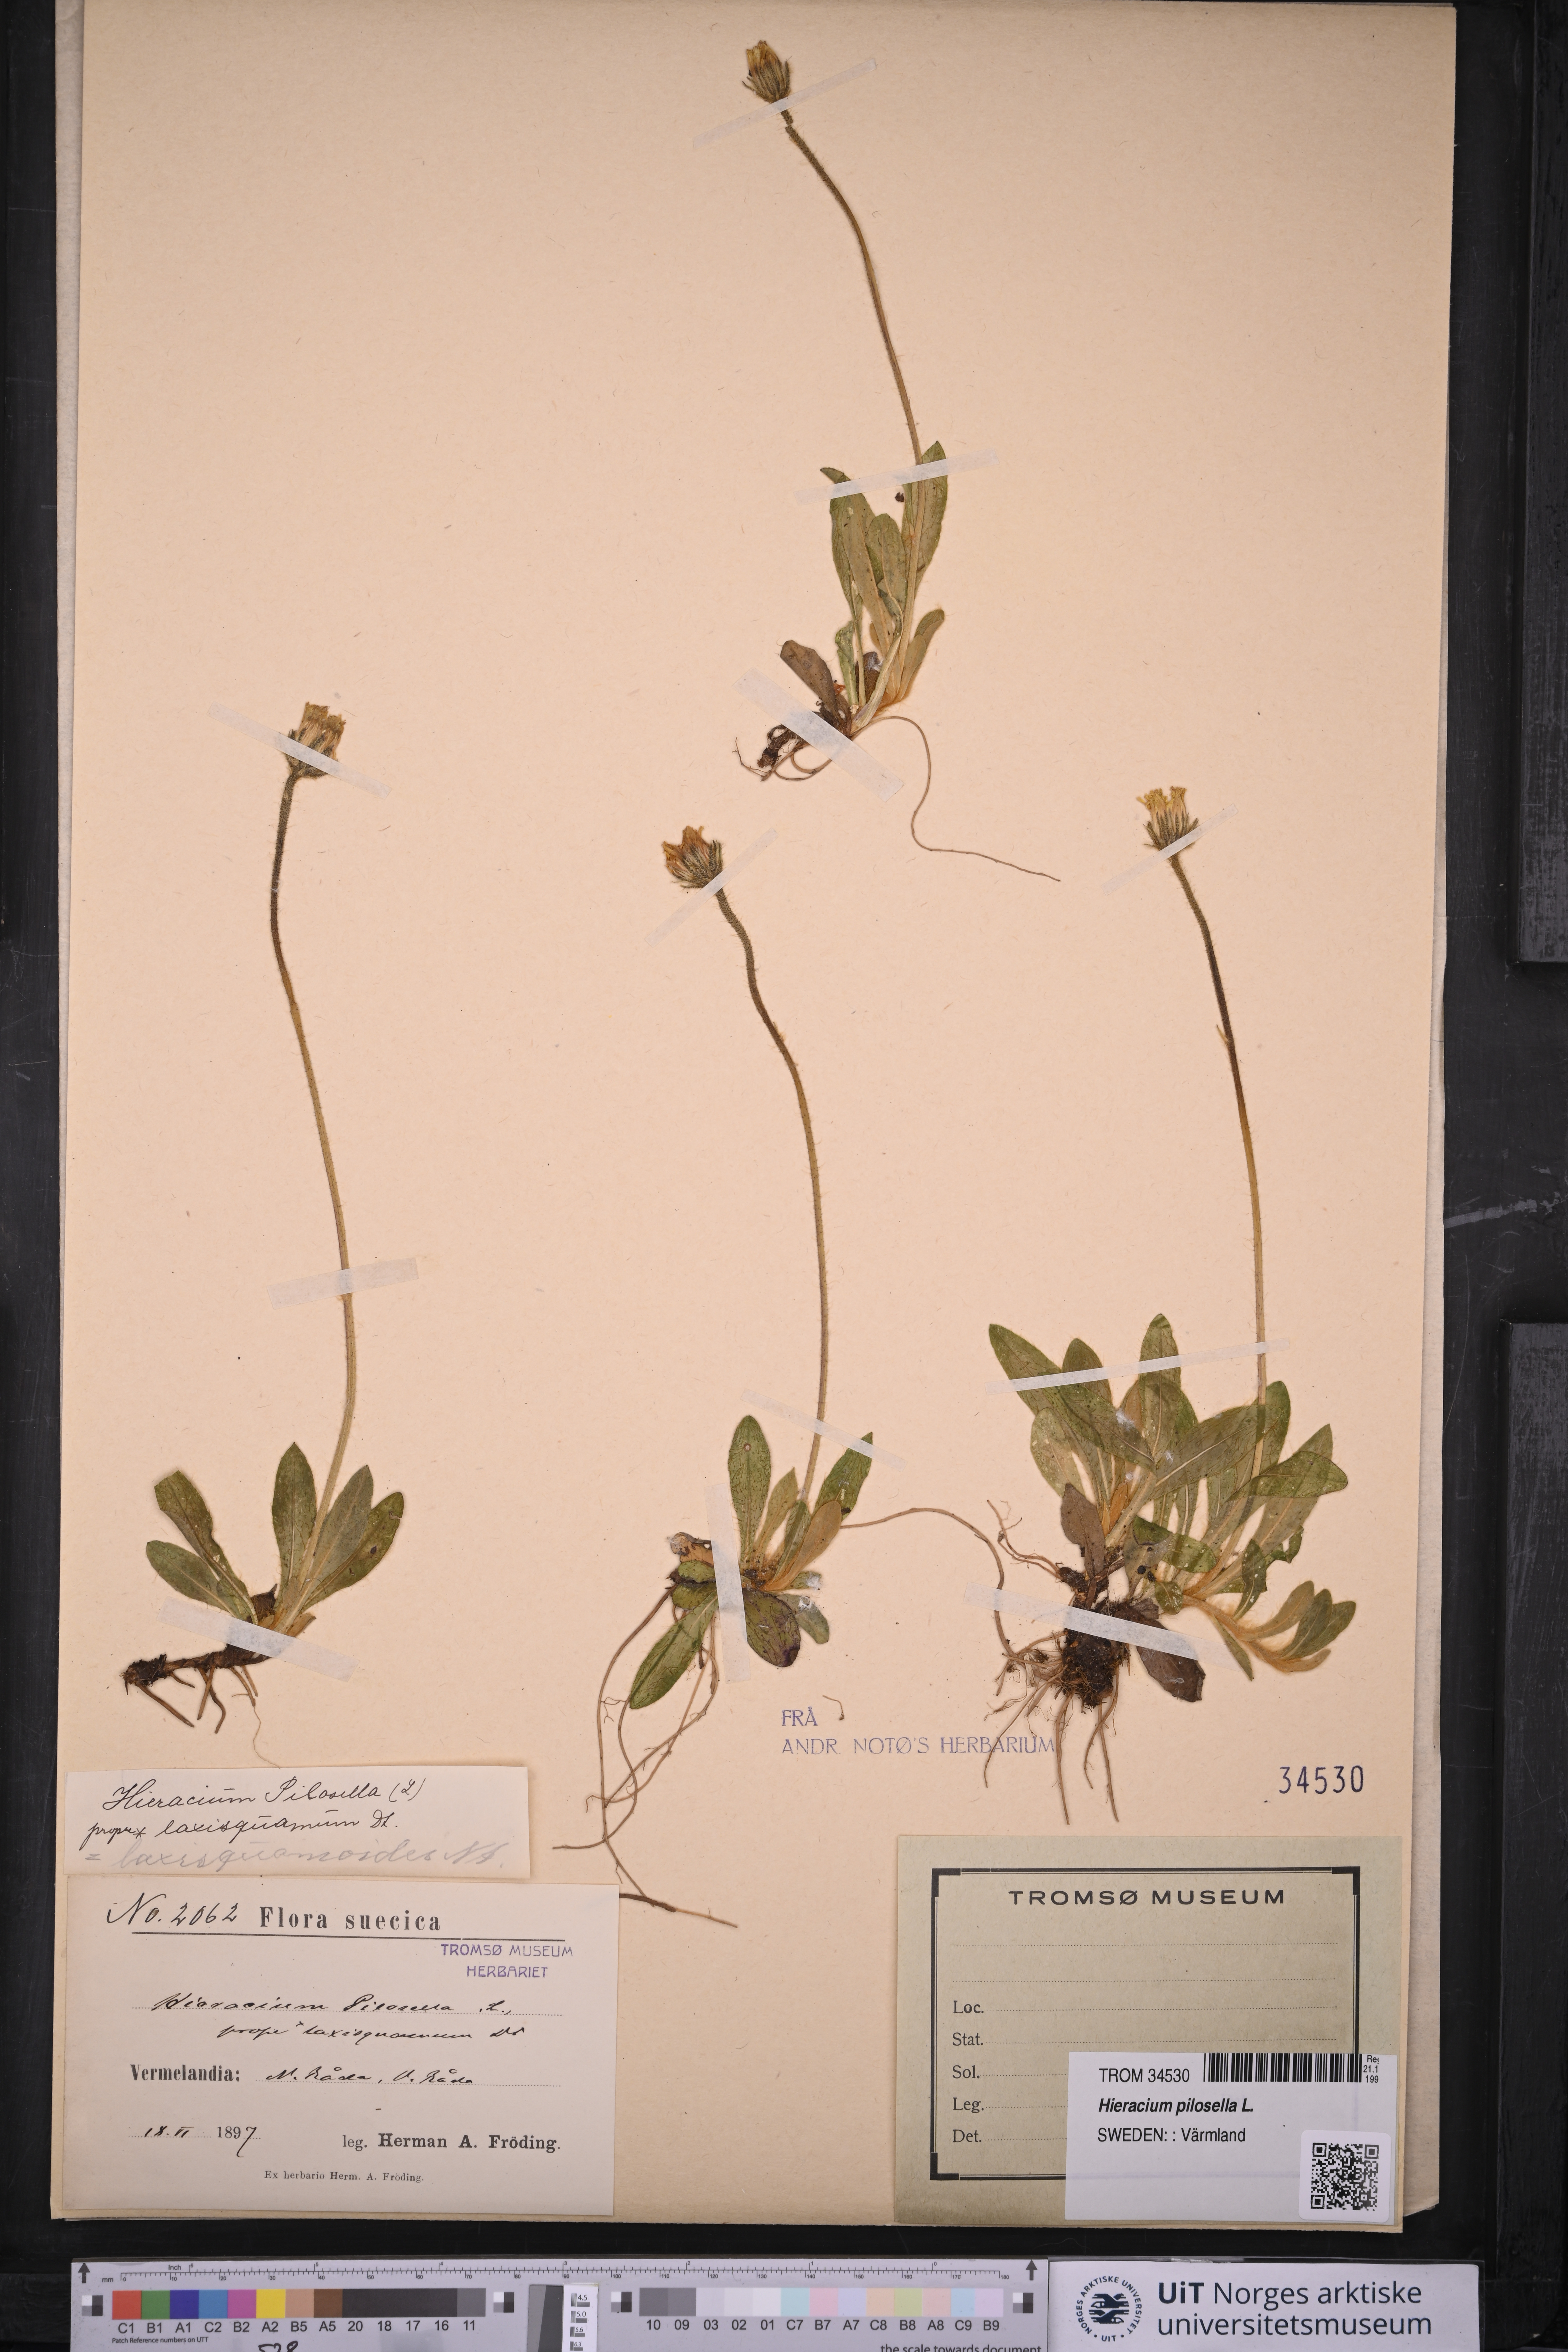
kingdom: Plantae
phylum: Tracheophyta
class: Magnoliopsida
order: Asterales
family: Asteraceae
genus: Pilosella
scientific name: Pilosella officinarum
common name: Mouse-ear hawkweed
